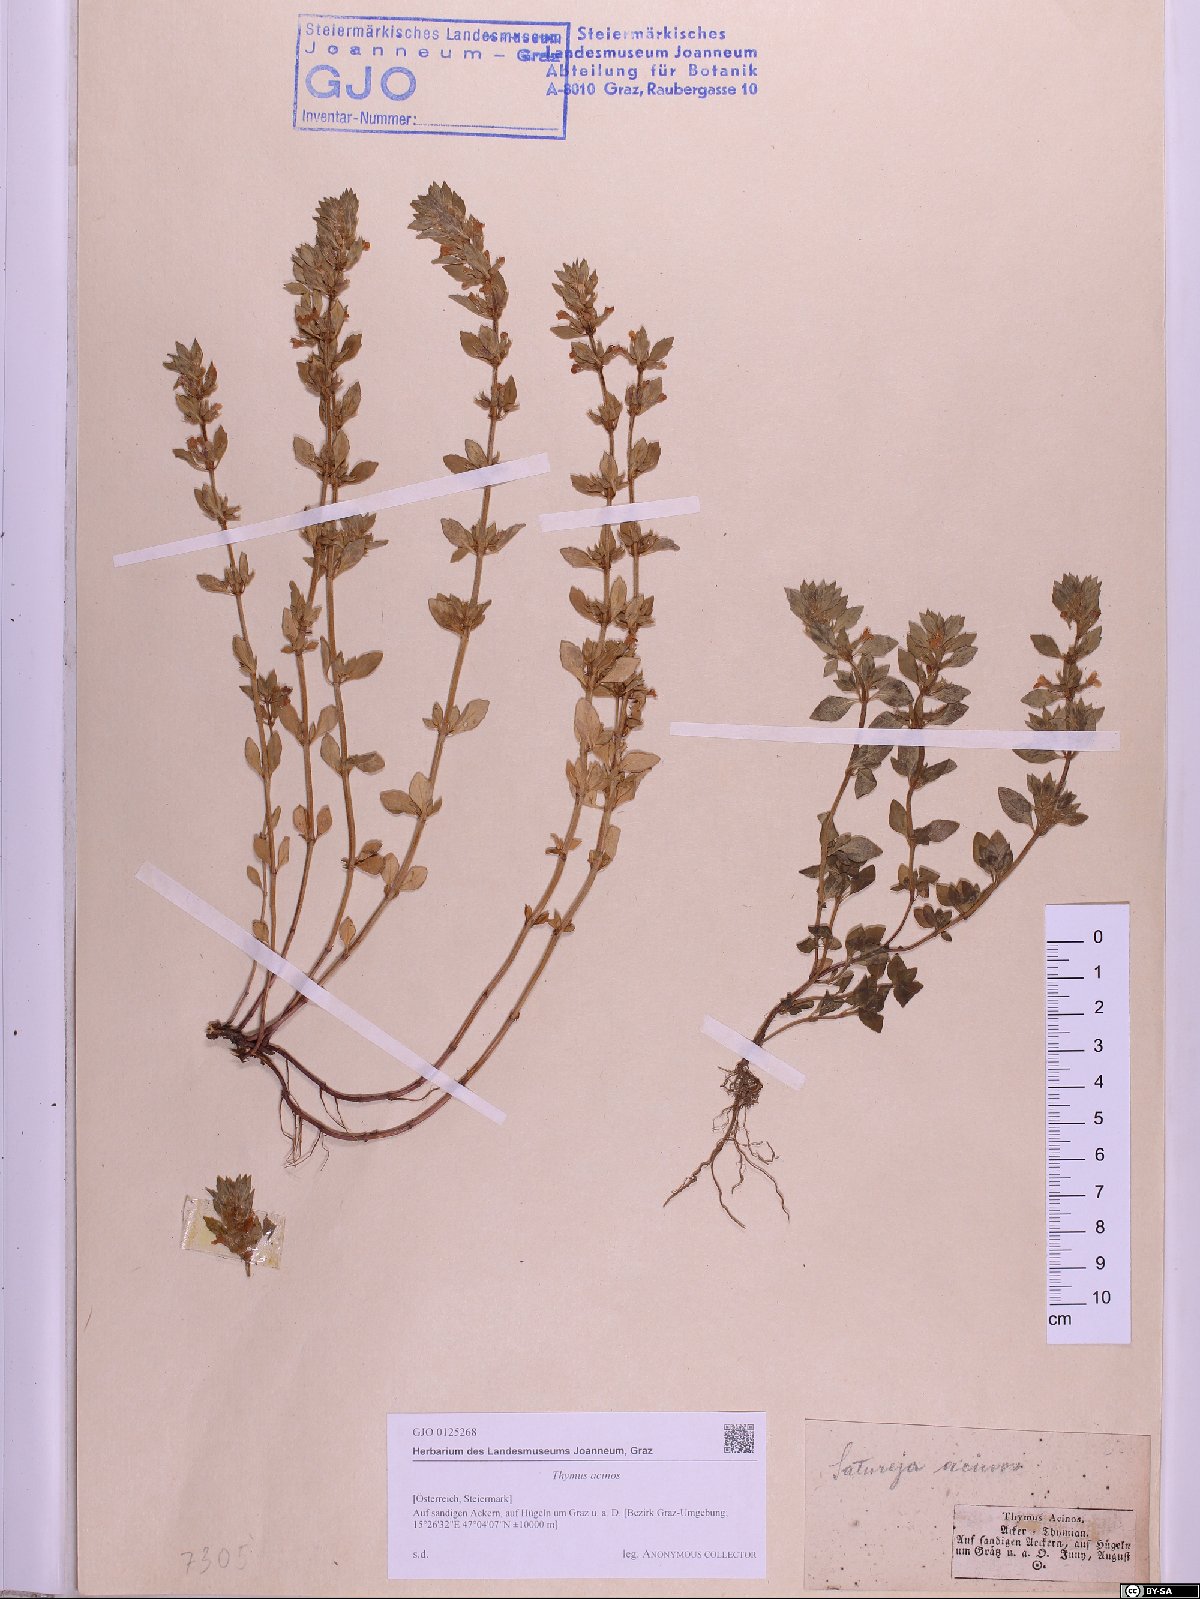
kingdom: Plantae
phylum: Tracheophyta
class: Magnoliopsida
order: Lamiales
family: Lamiaceae
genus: Clinopodium
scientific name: Clinopodium acinos
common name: Basil thyme
